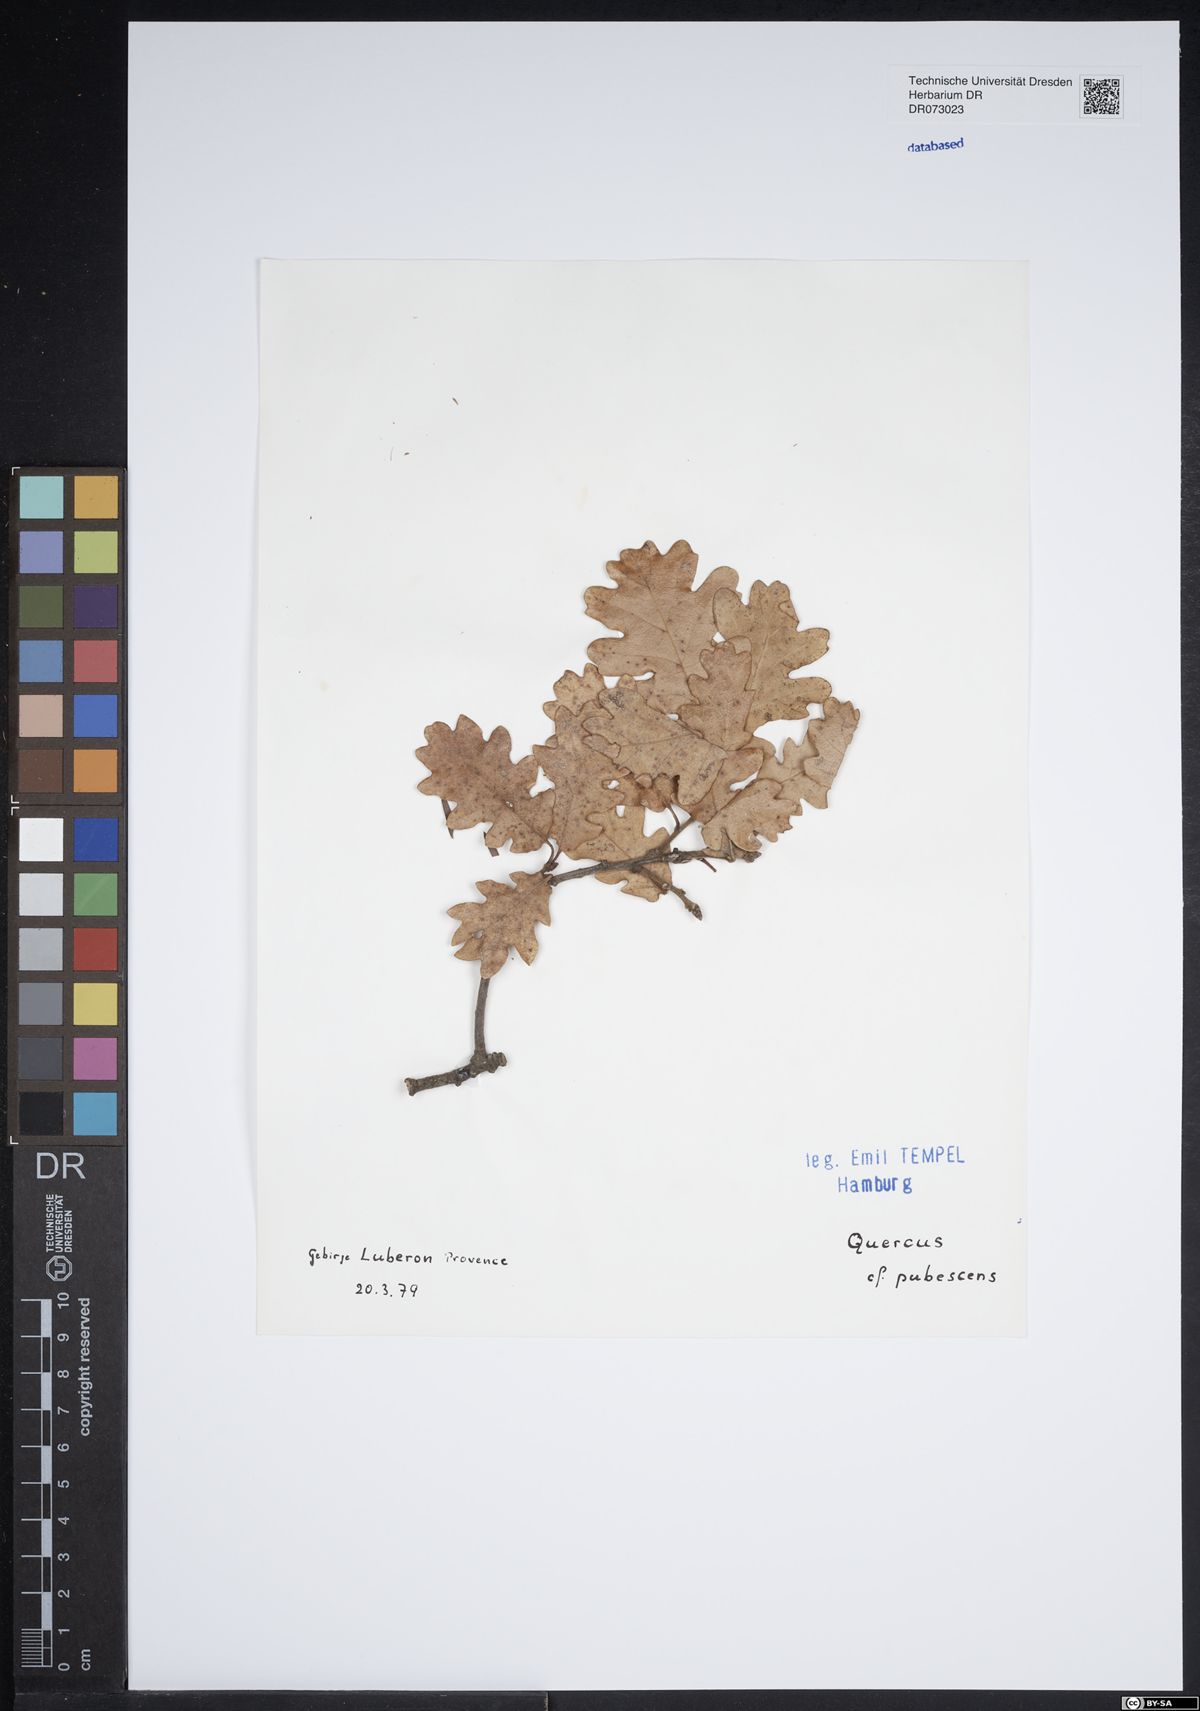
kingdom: Plantae
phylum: Tracheophyta
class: Magnoliopsida
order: Fagales
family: Fagaceae
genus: Quercus
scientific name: Quercus pubescens
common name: Downy oak
